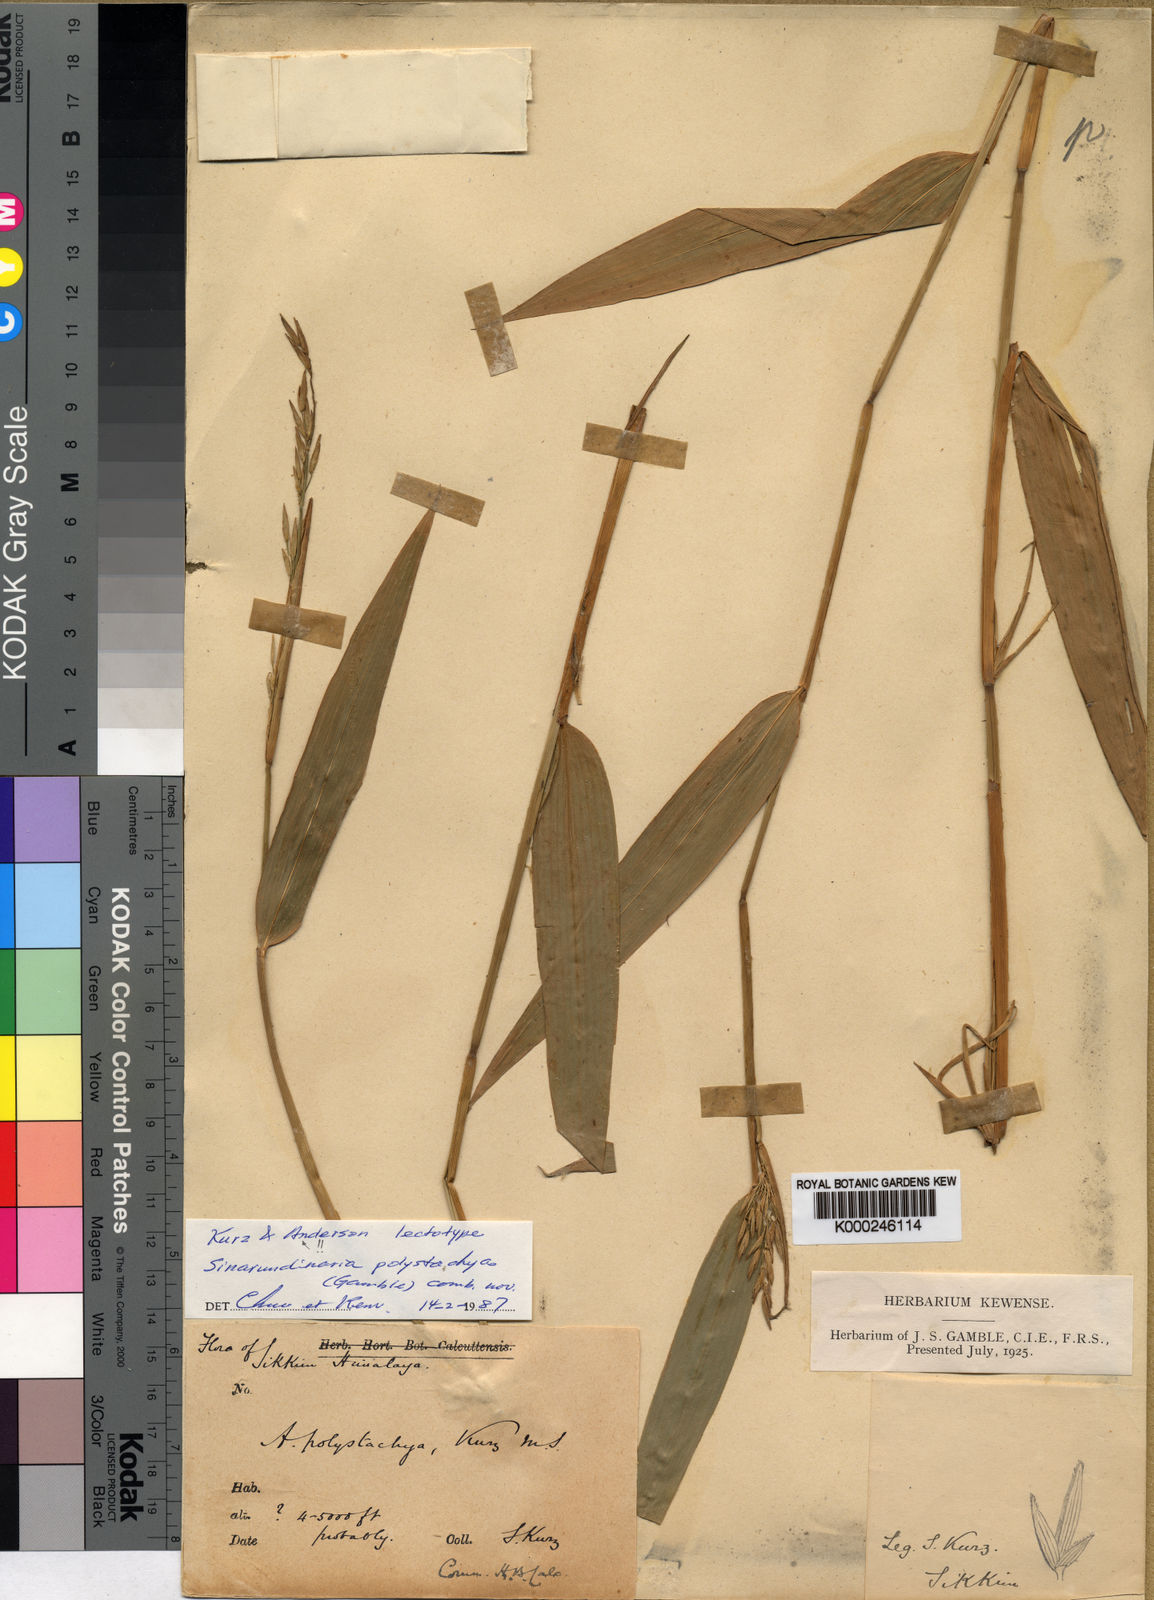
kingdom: Plantae
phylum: Tracheophyta
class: Liliopsida
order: Poales
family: Poaceae
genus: Drepanostachyum
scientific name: Drepanostachyum polystachyum
